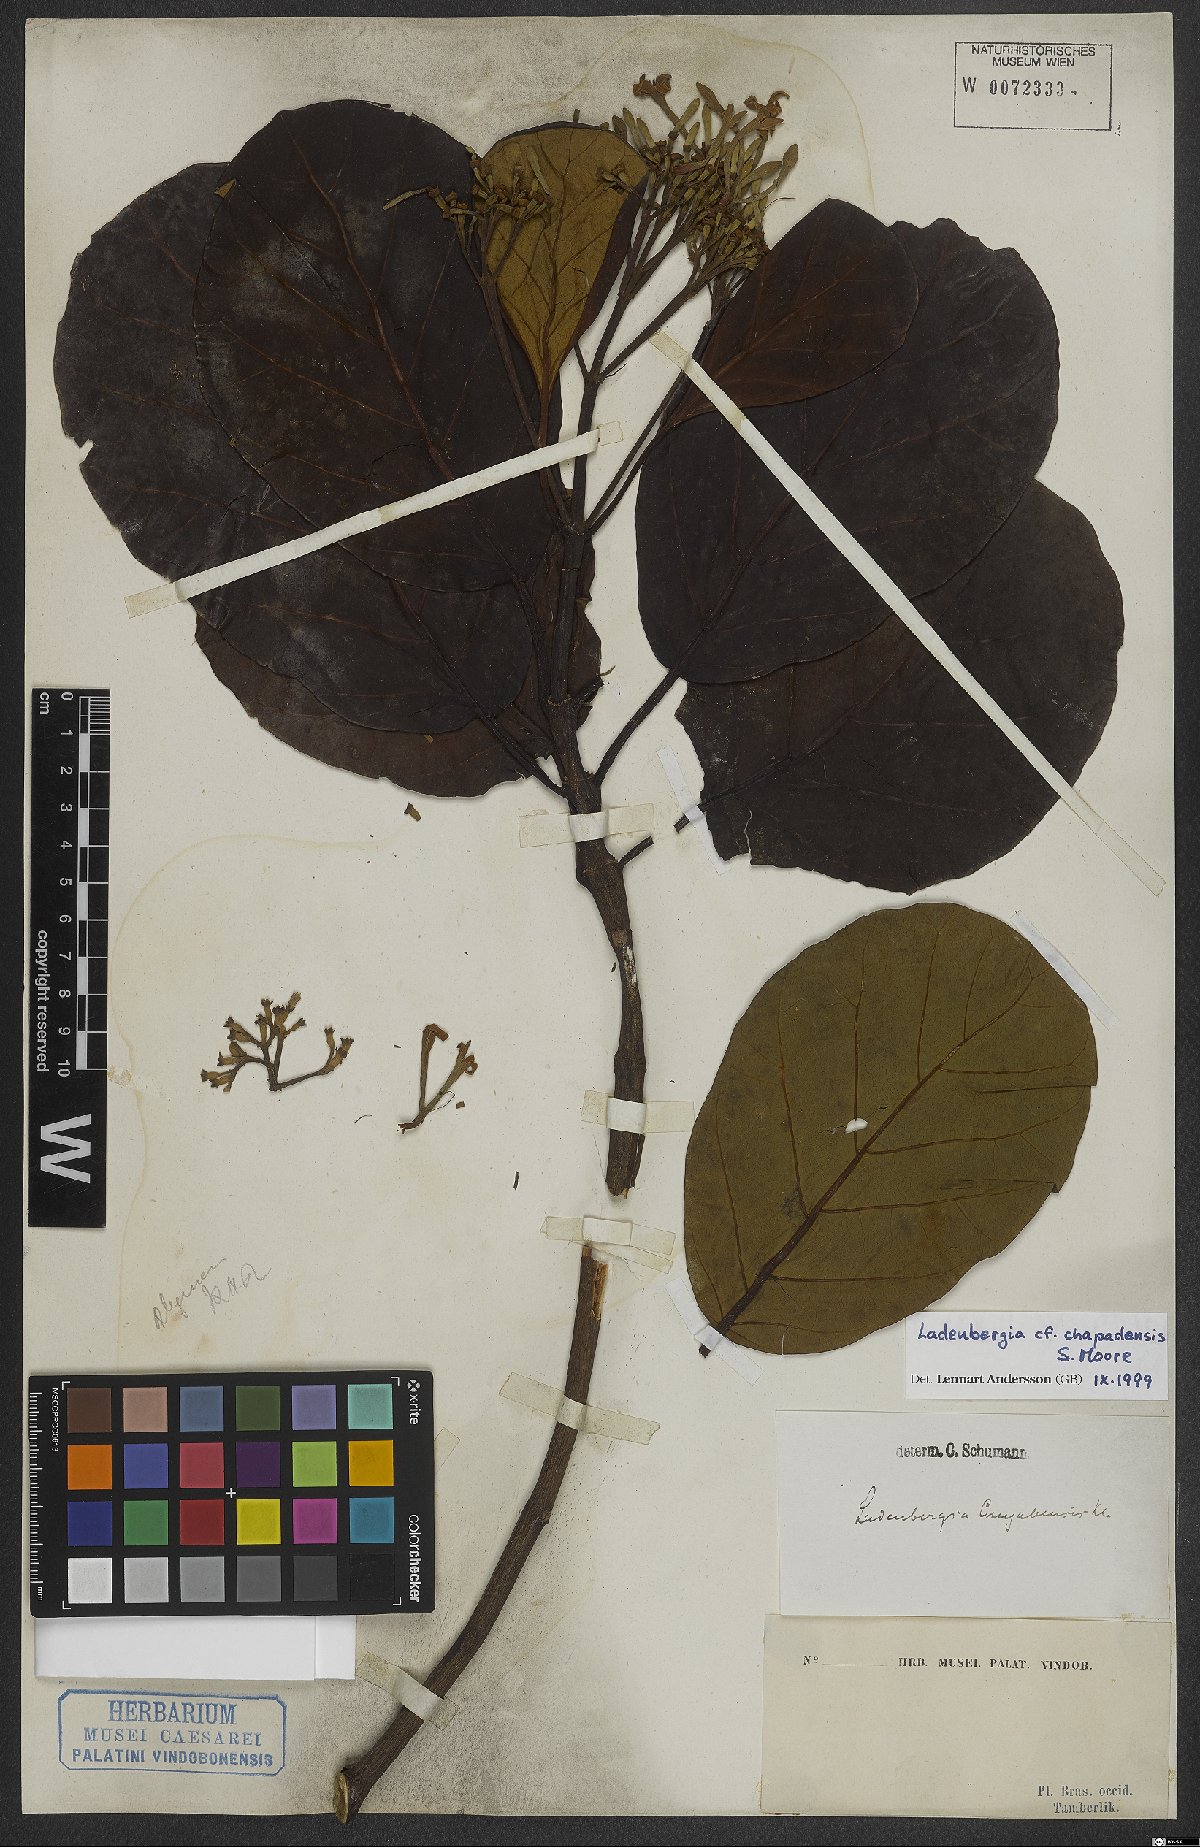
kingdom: Plantae
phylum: Tracheophyta
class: Magnoliopsida
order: Gentianales
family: Rubiaceae
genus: Ladenbergia
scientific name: Ladenbergia chapadensis
